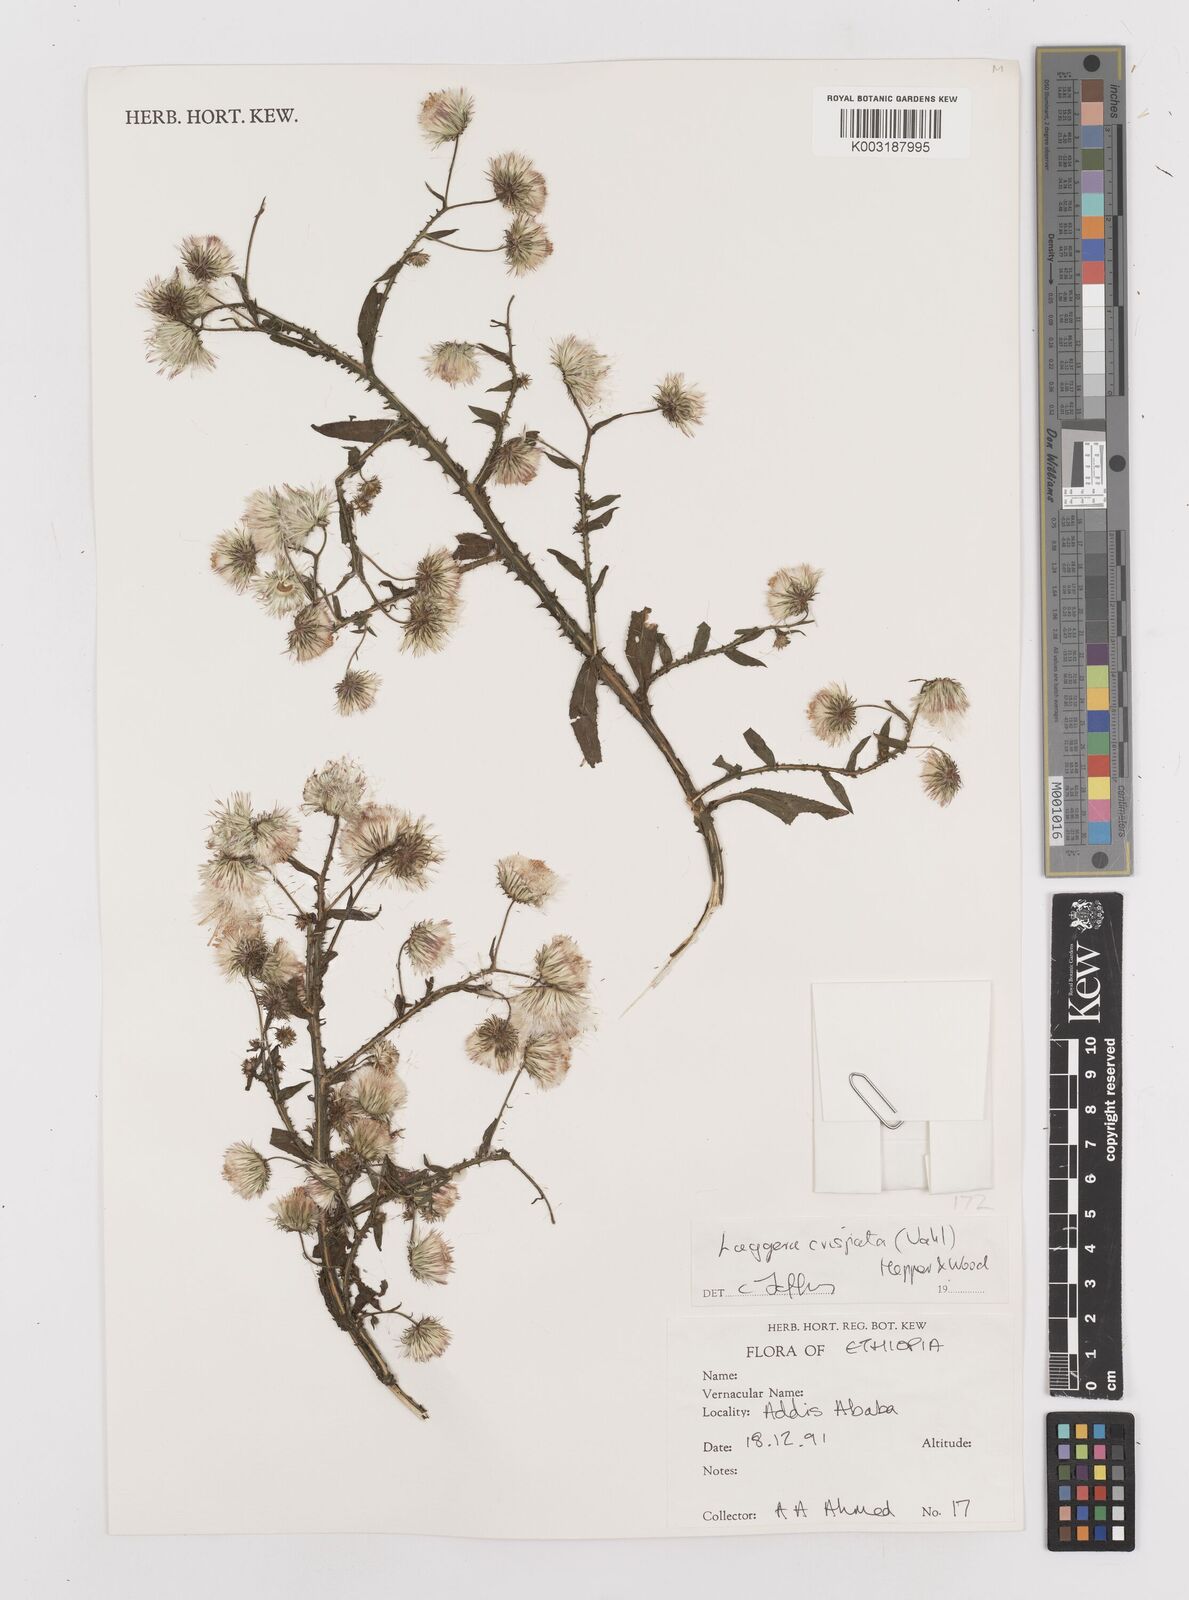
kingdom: Plantae
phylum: Tracheophyta
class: Magnoliopsida
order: Asterales
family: Asteraceae
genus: Laggera
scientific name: Laggera crispata
